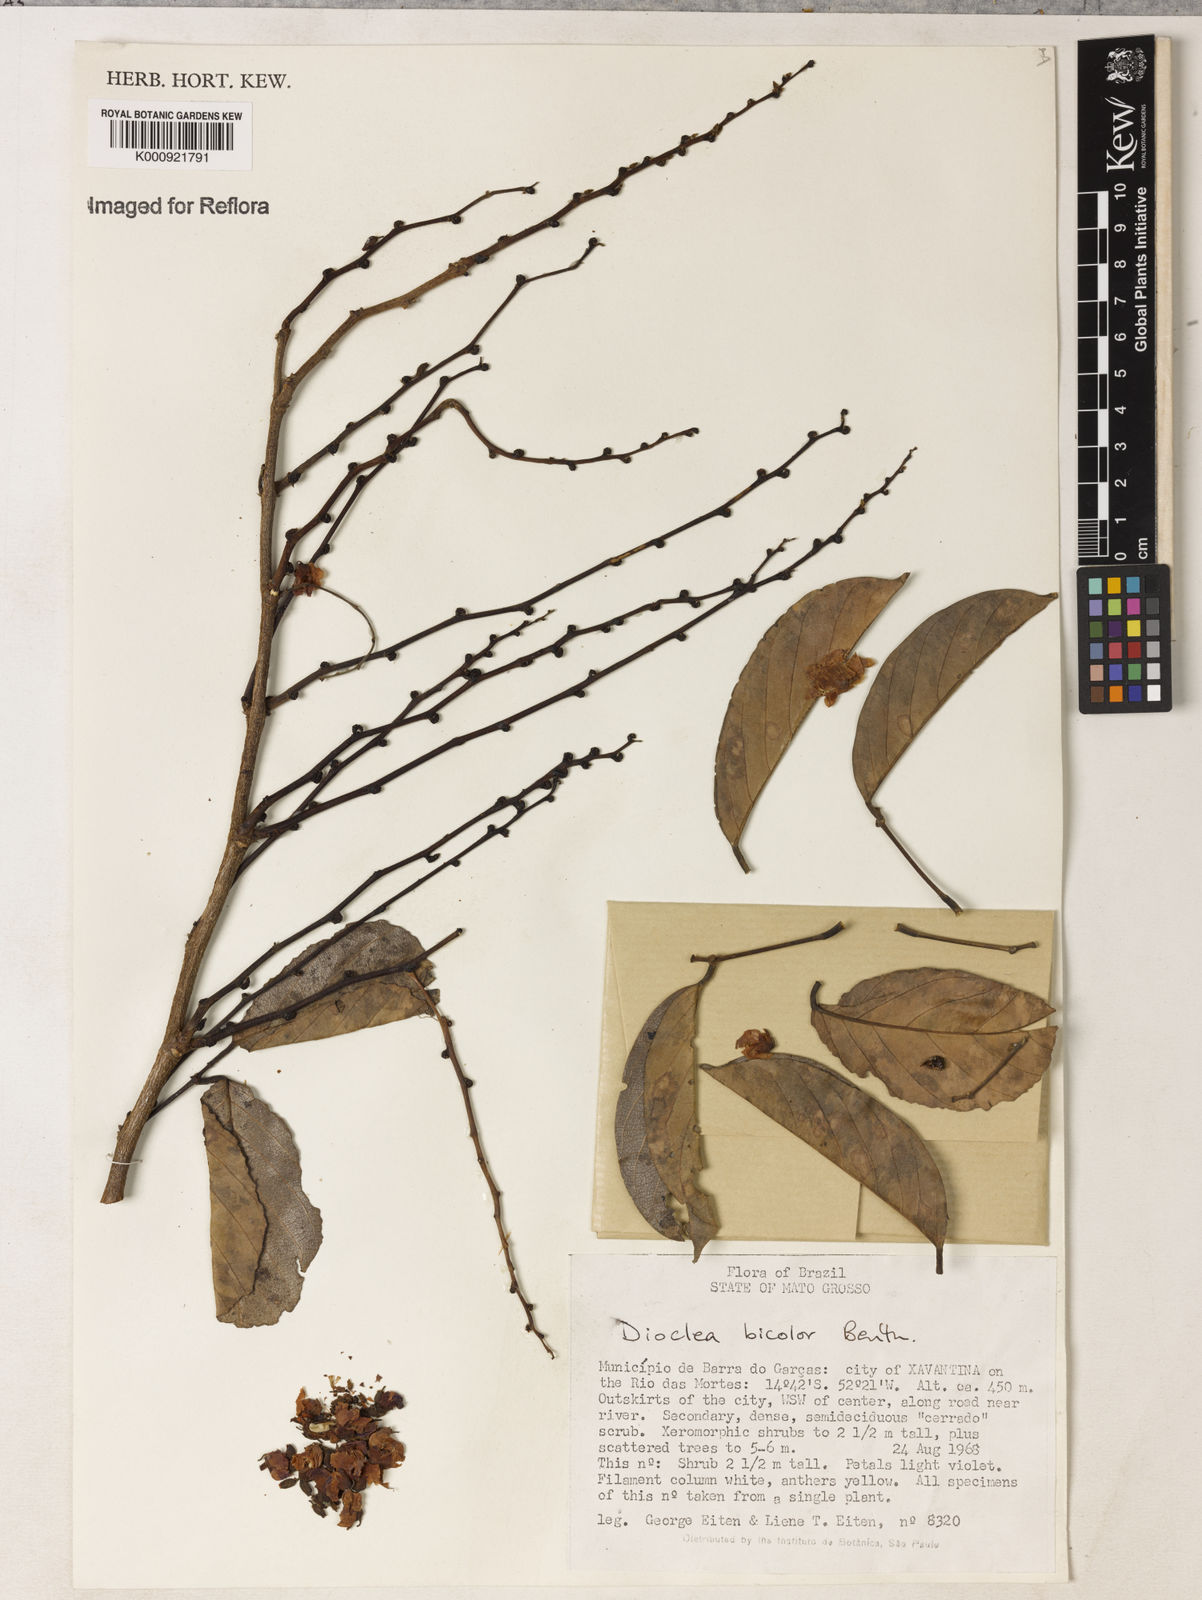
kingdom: Plantae
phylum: Tracheophyta
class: Magnoliopsida
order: Fabales
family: Fabaceae
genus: Macropsychanthus
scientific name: Macropsychanthus bicolor
